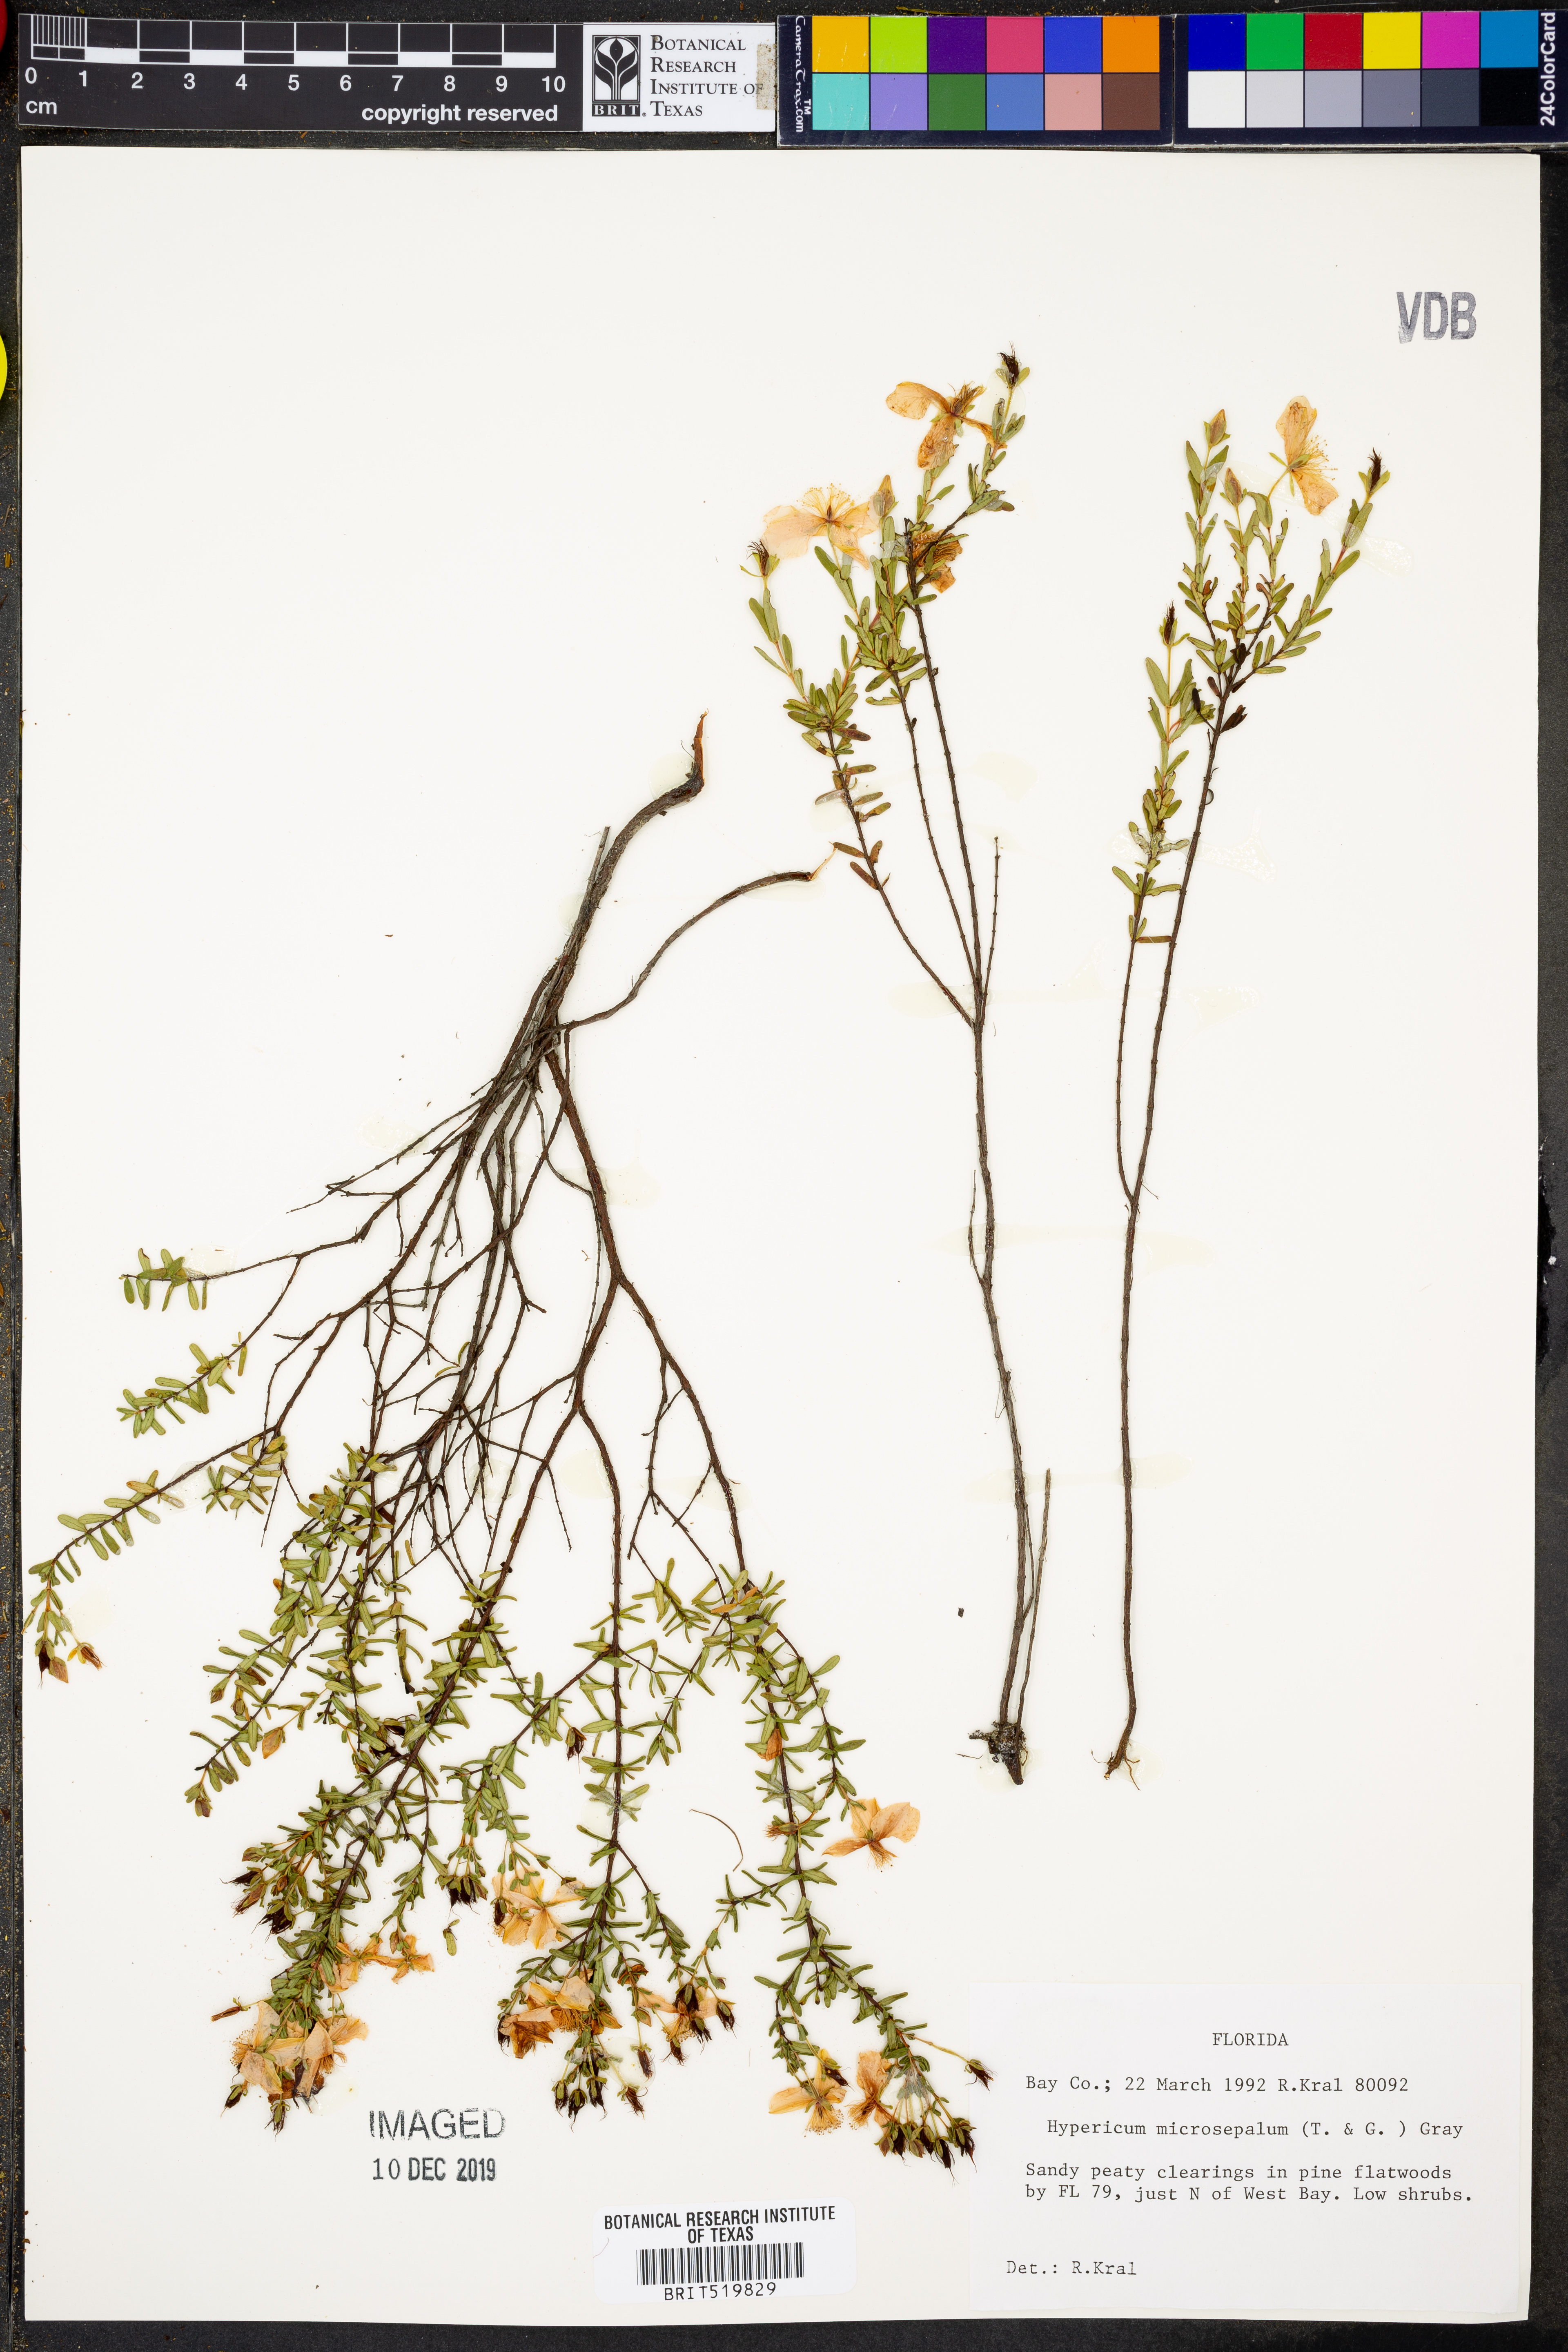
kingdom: Plantae
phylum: Tracheophyta
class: Magnoliopsida
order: Malpighiales
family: Hypericaceae
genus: Hypericum
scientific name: Hypericum microsepalum
